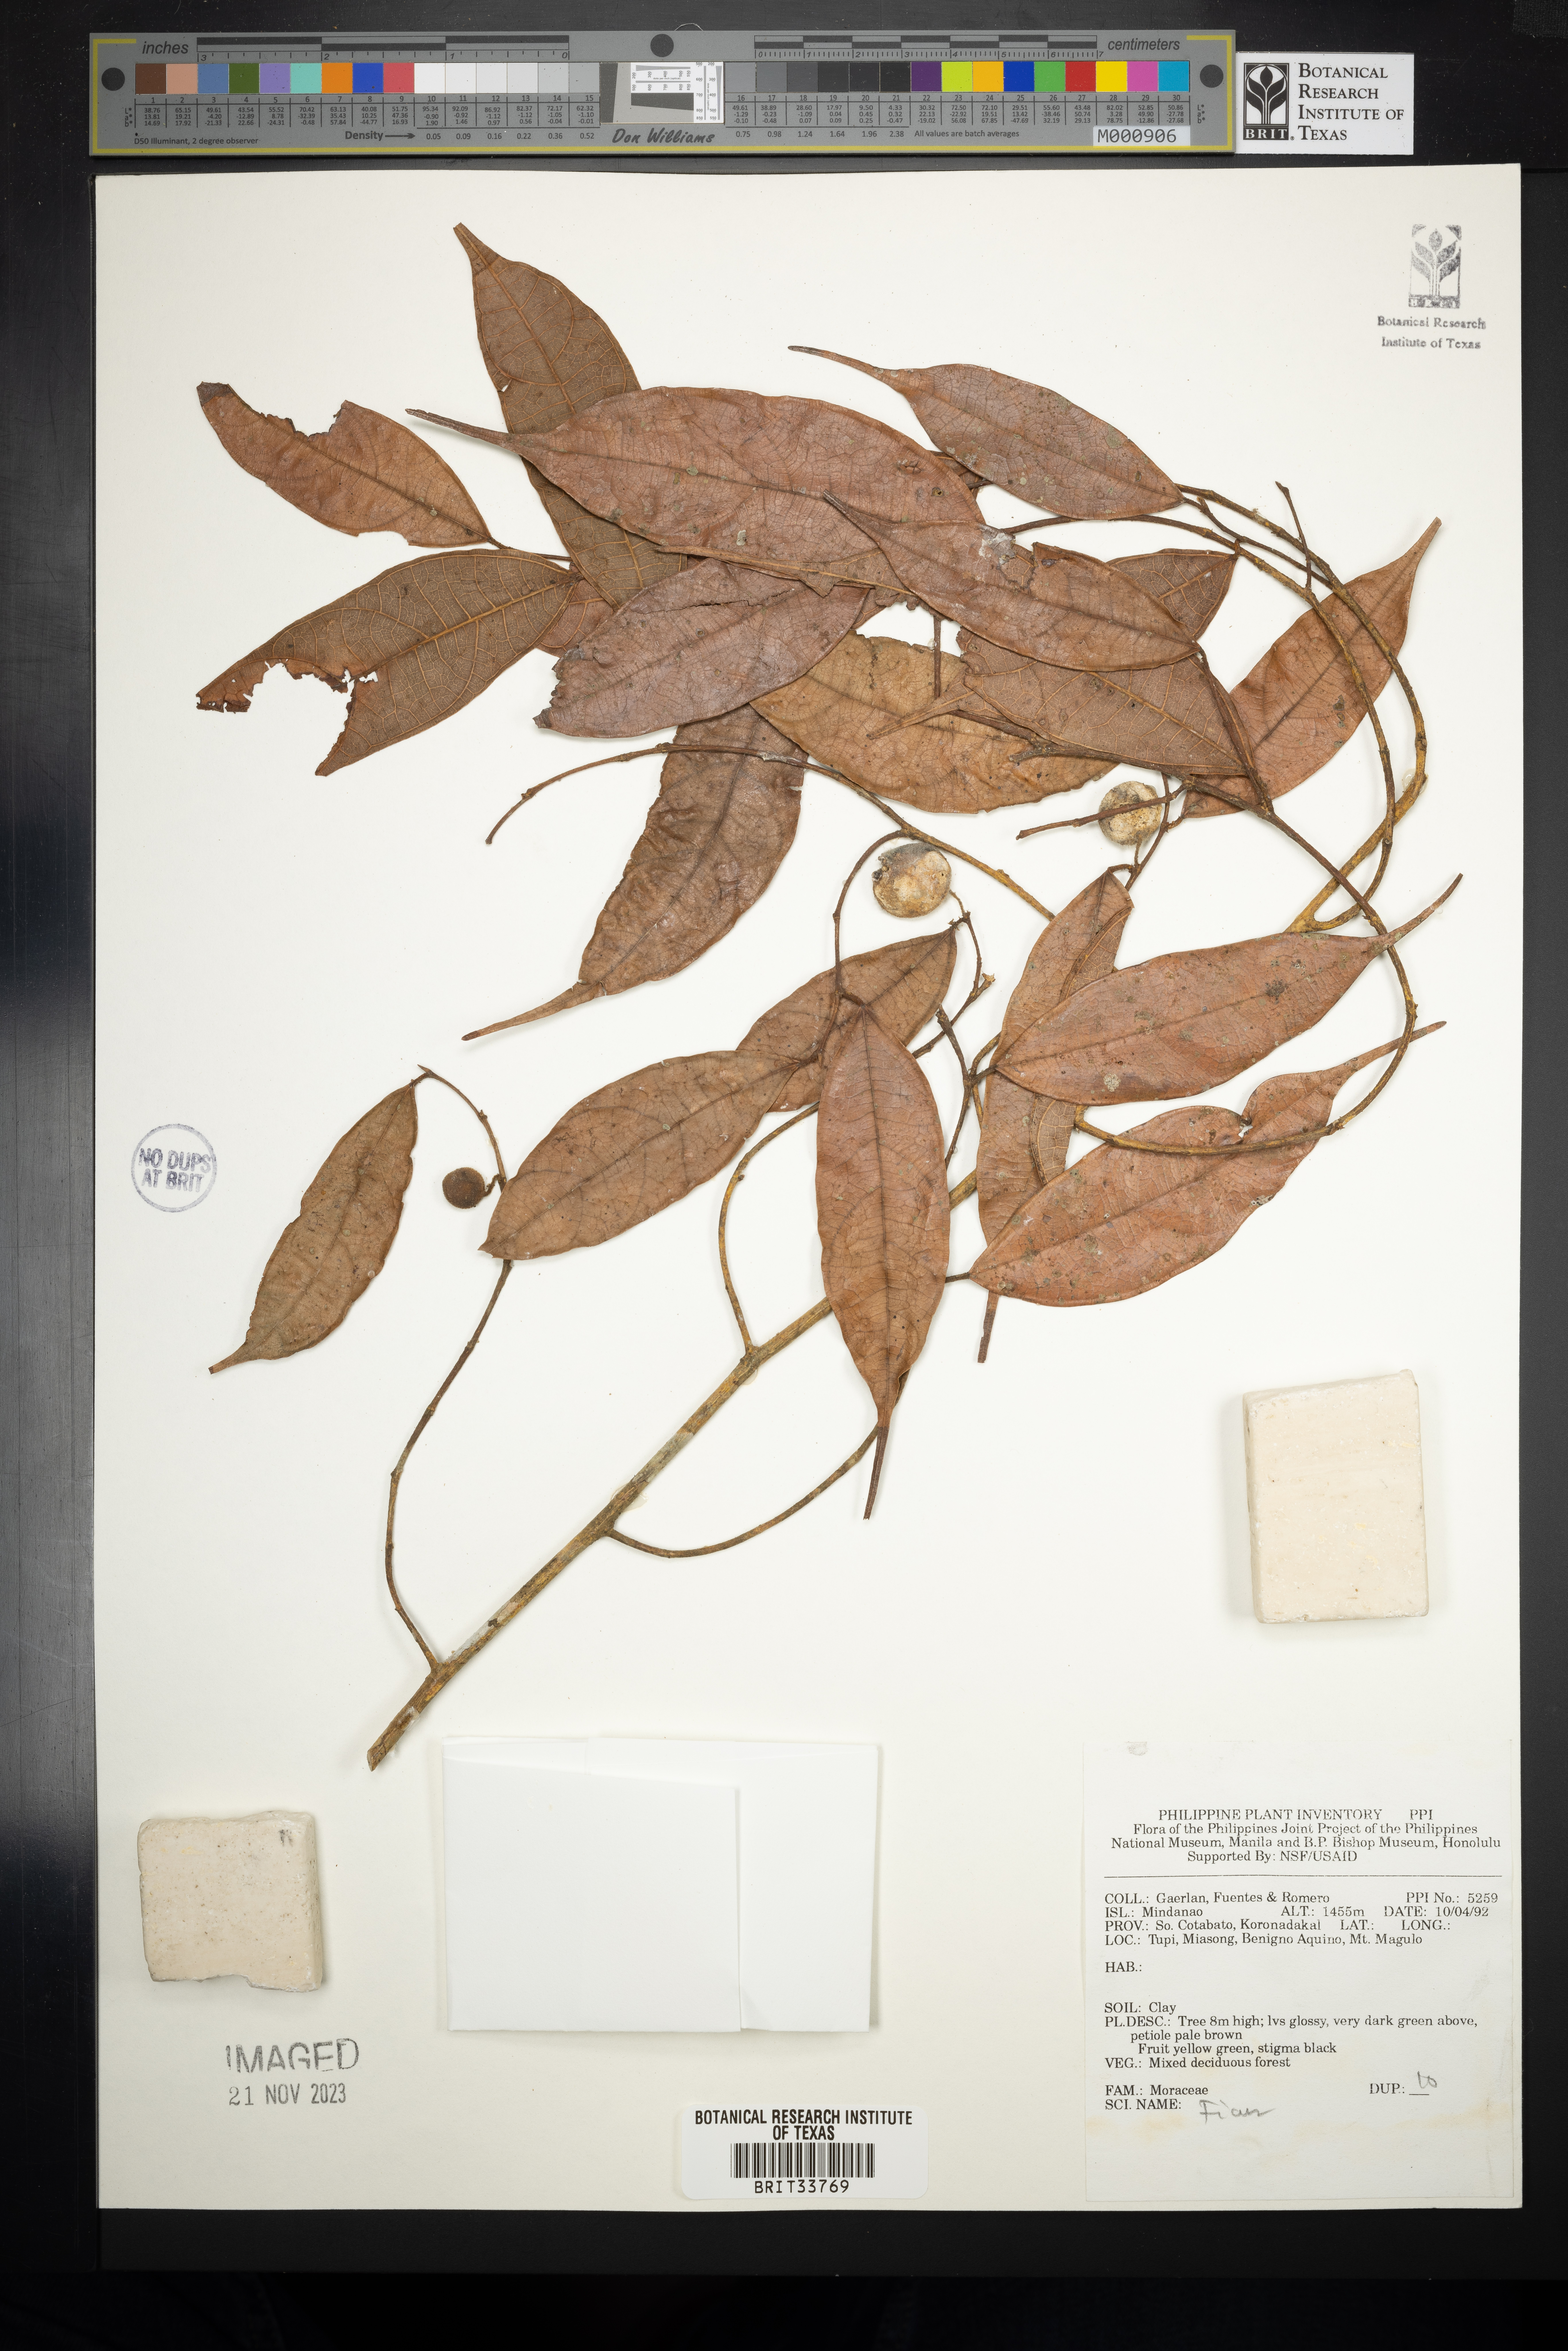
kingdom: Plantae
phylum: Tracheophyta
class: Magnoliopsida
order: Rosales
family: Moraceae
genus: Ficus
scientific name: Ficus
